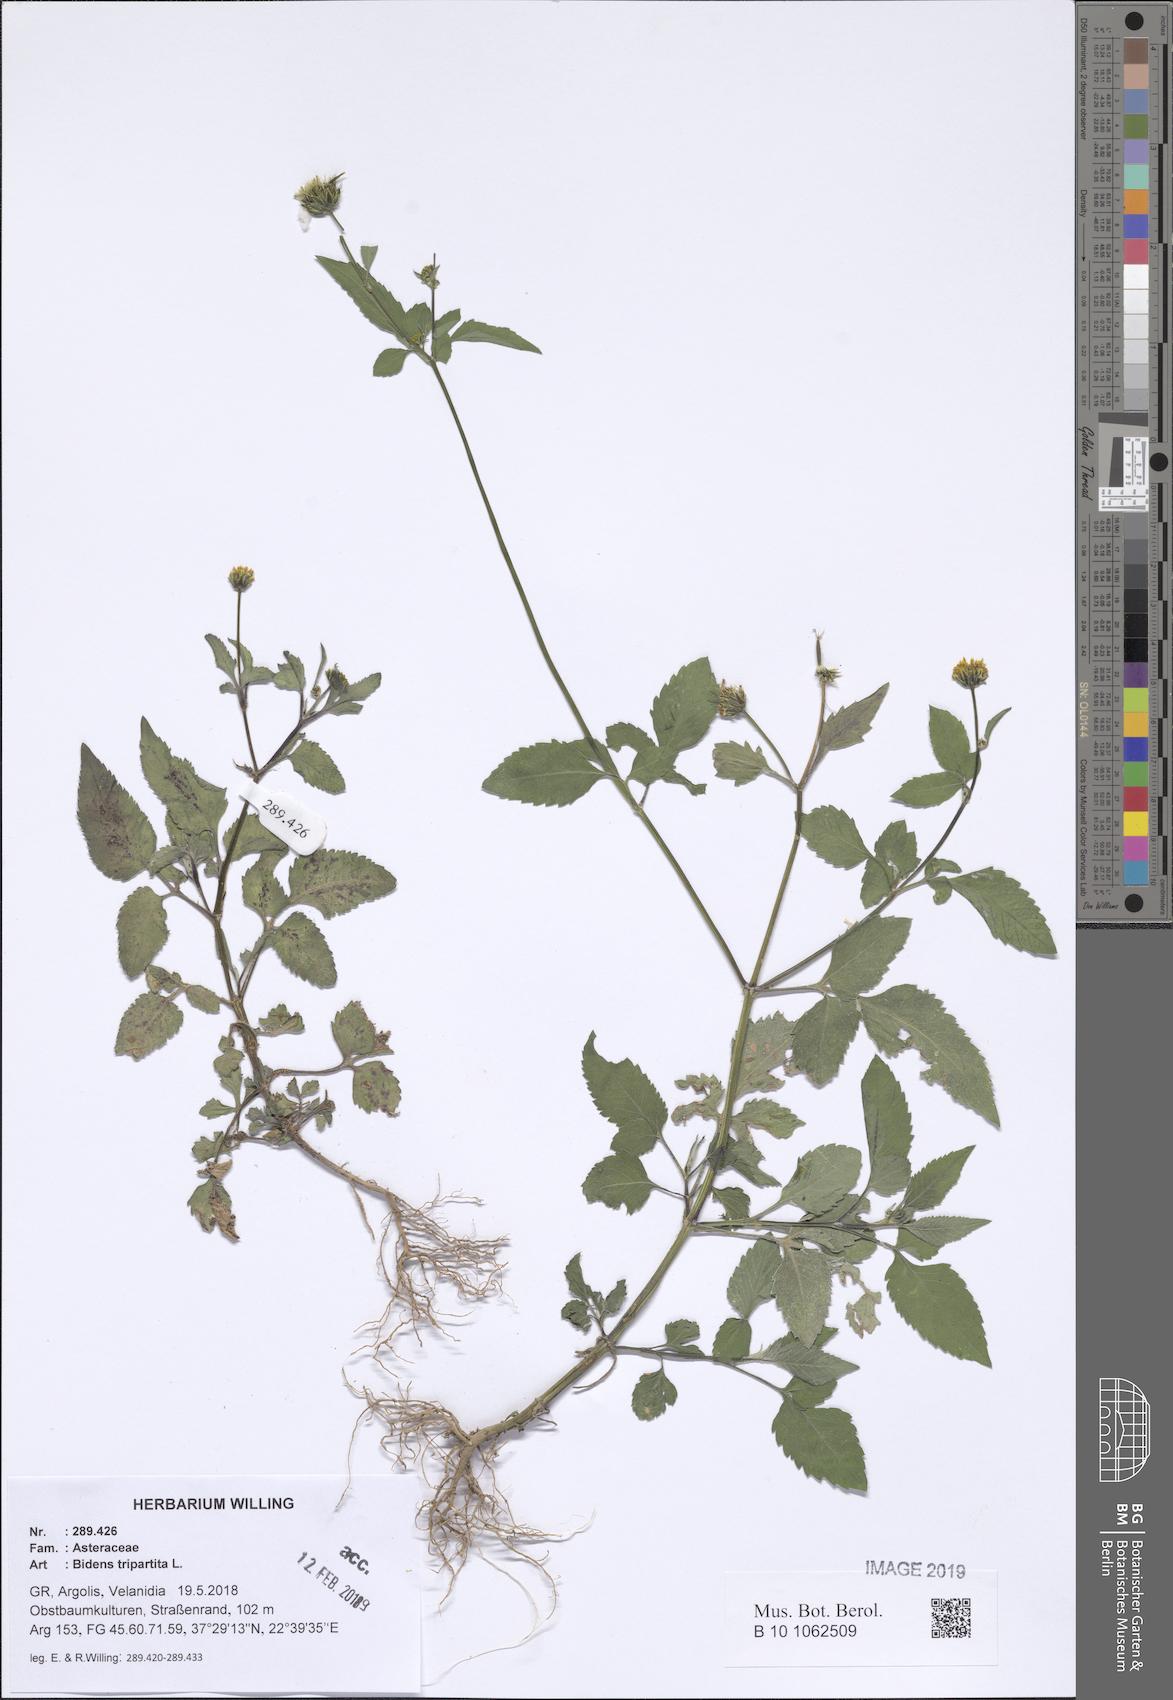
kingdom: Plantae
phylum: Tracheophyta
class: Magnoliopsida
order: Asterales
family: Asteraceae
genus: Bidens
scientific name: Bidens tripartita
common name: Trifid bur-marigold
